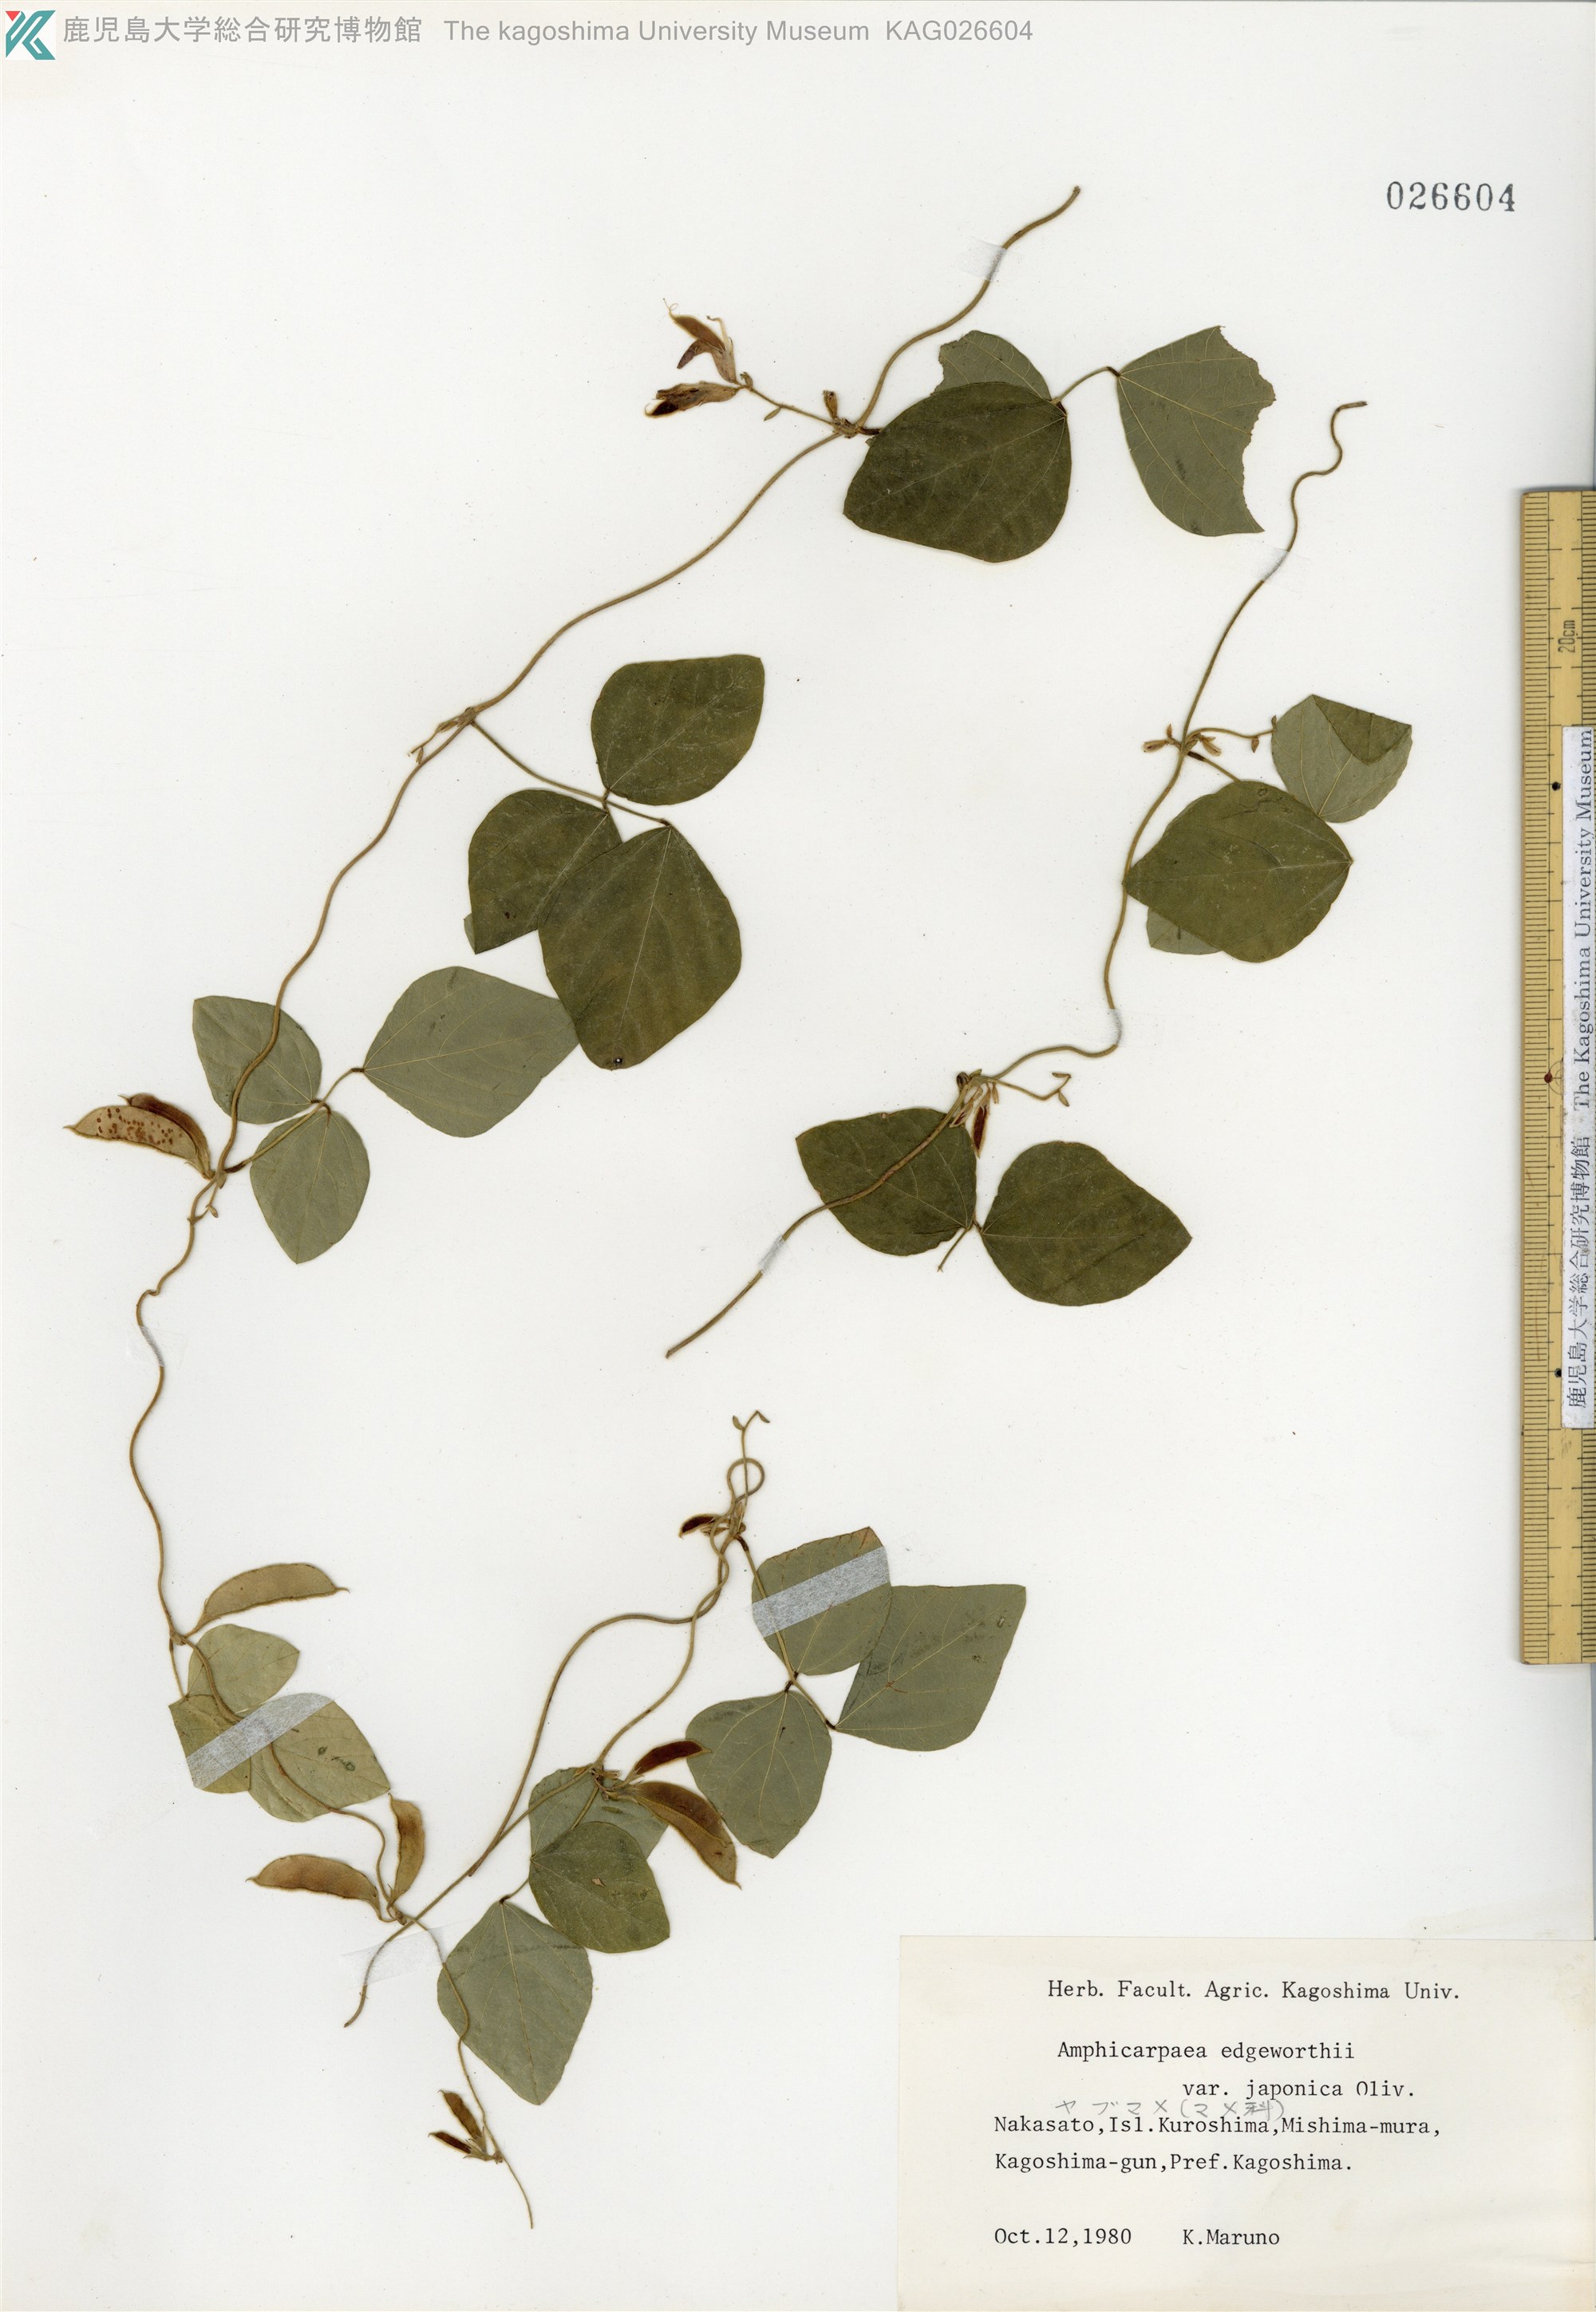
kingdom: Plantae
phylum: Tracheophyta
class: Magnoliopsida
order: Fabales
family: Fabaceae
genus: Amphicarpaea
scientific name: Amphicarpaea edgeworthii
